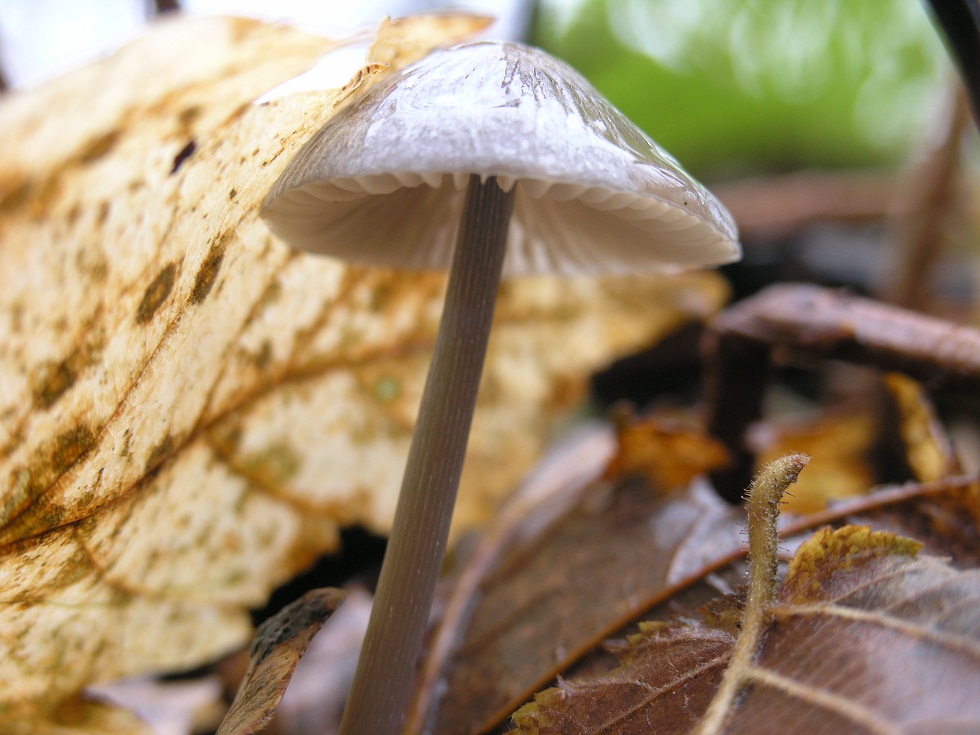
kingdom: Fungi
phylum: Basidiomycota
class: Agaricomycetes
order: Agaricales
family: Mycenaceae
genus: Mycena
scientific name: Mycena polygramma
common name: mangestribet huesvamp
